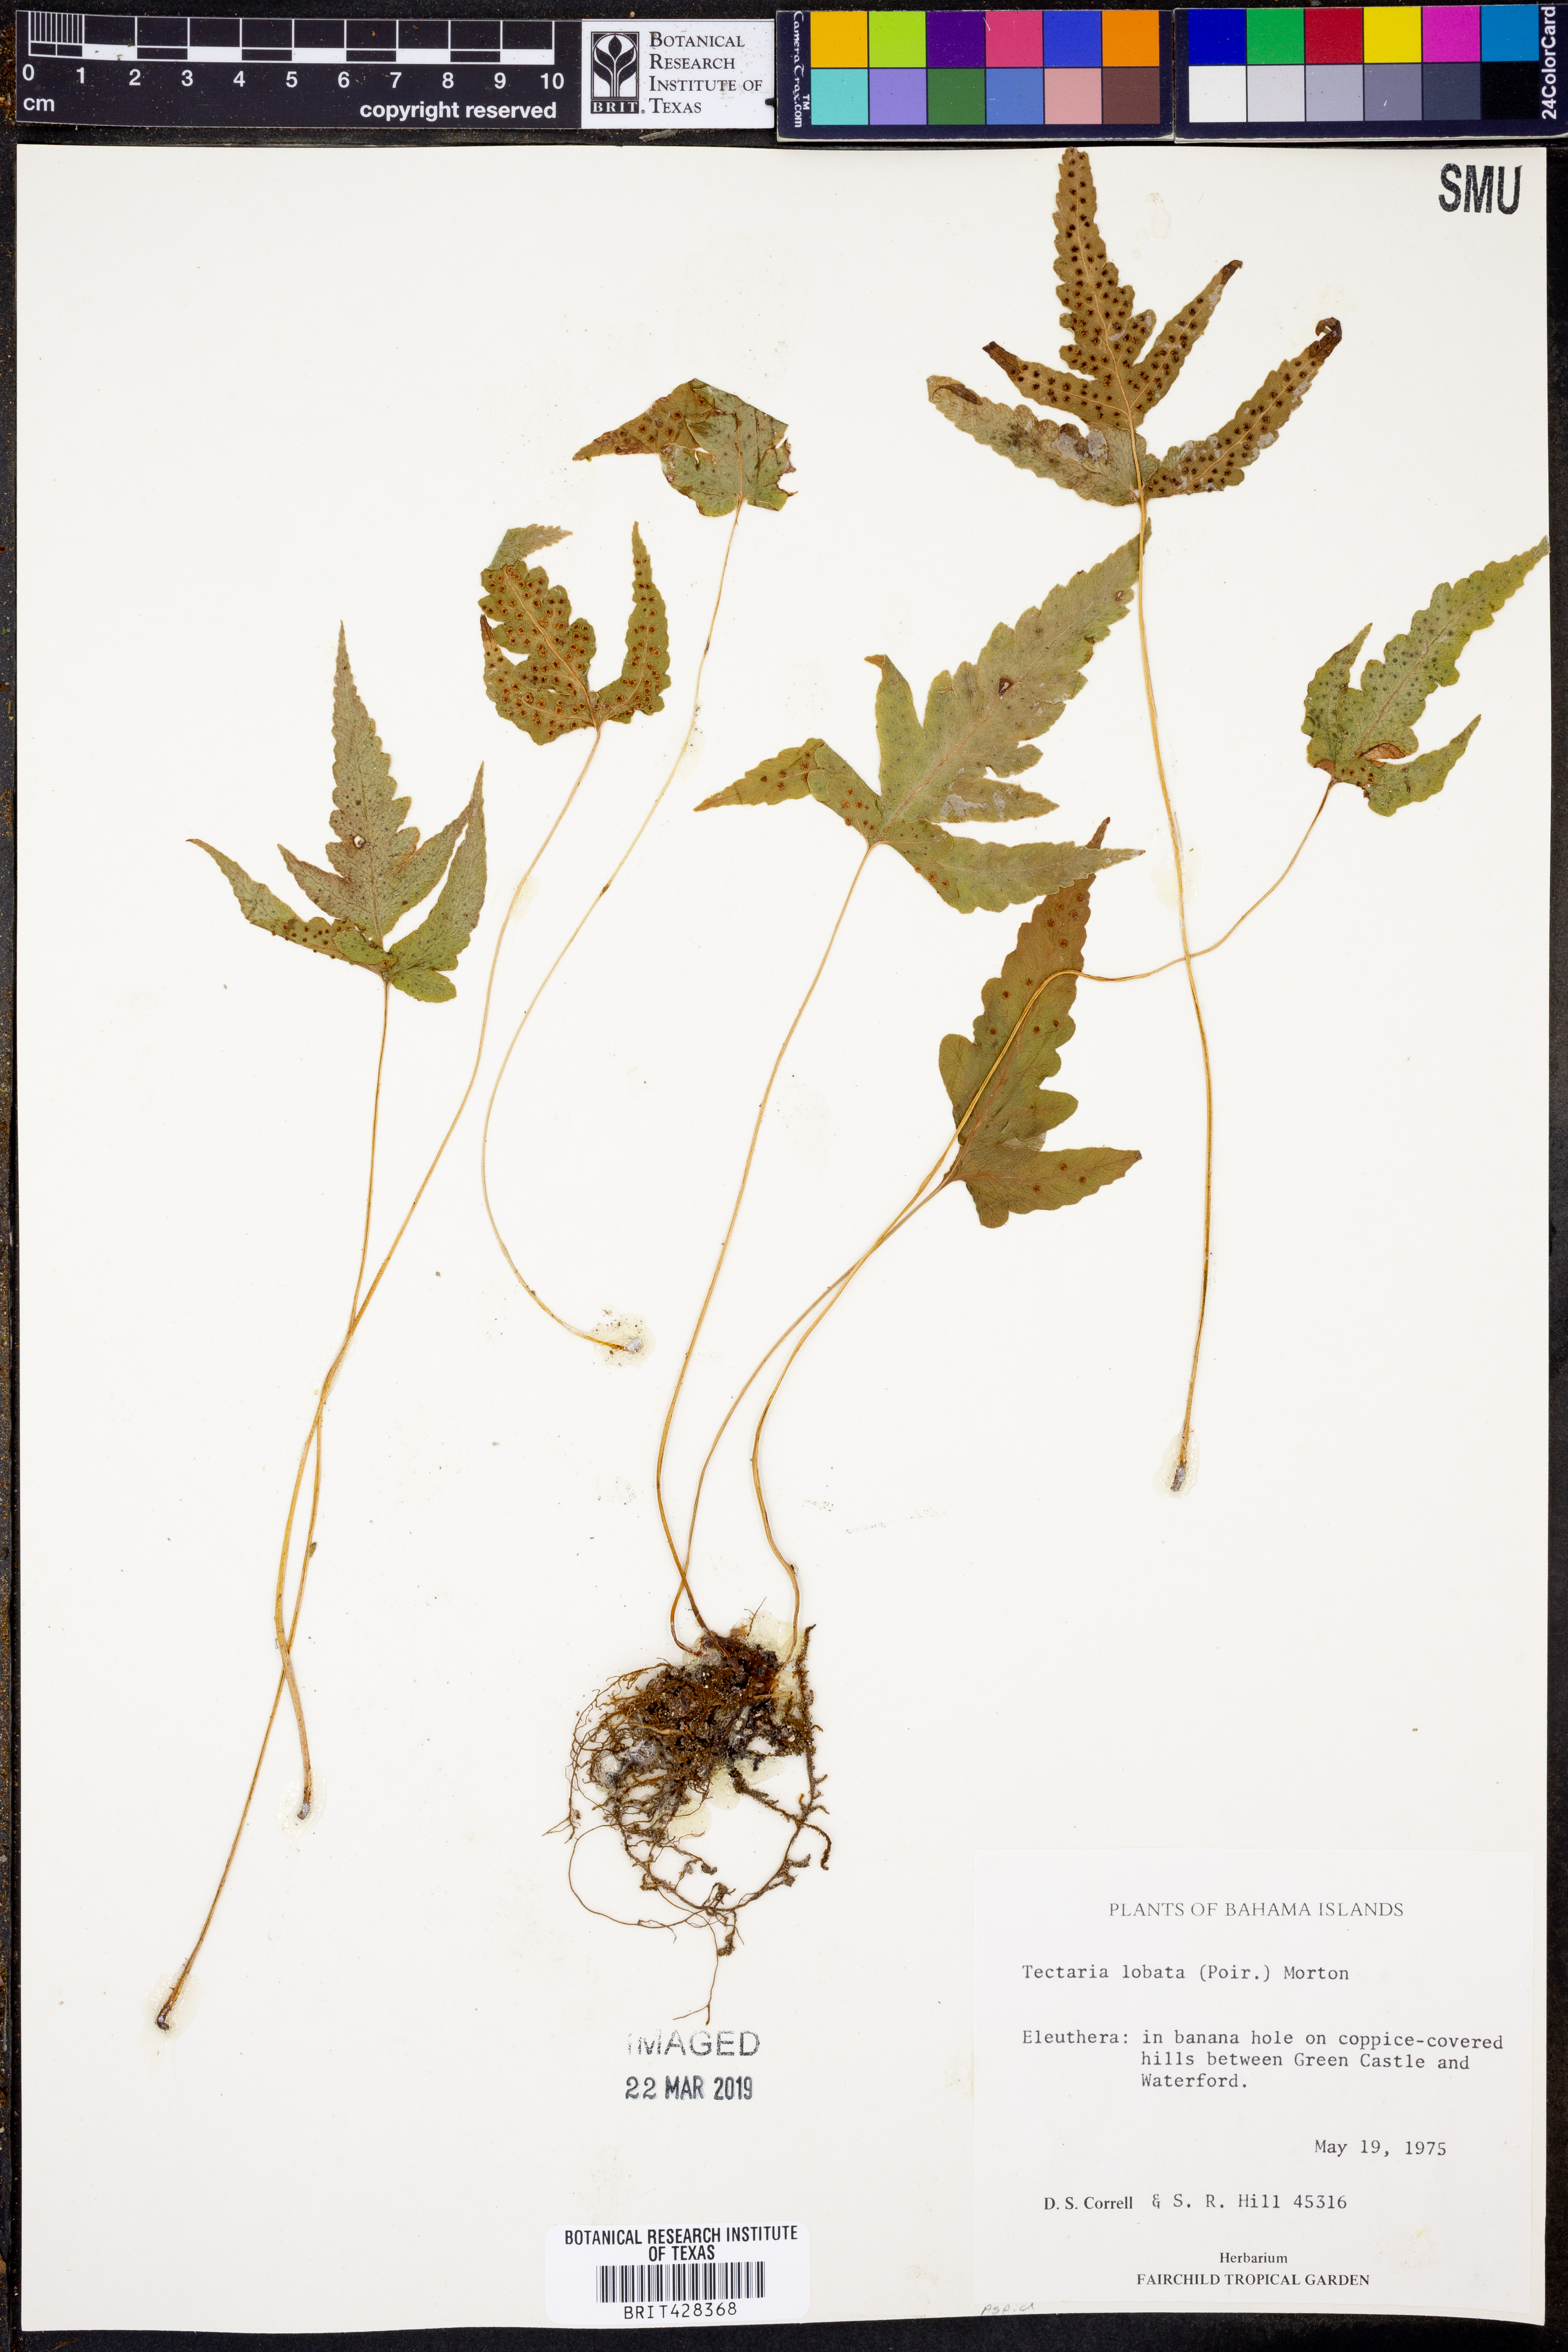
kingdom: Plantae
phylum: Tracheophyta
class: Polypodiopsida
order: Polypodiales
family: Tectariaceae
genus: Tectaria
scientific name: Tectaria fimbriata
